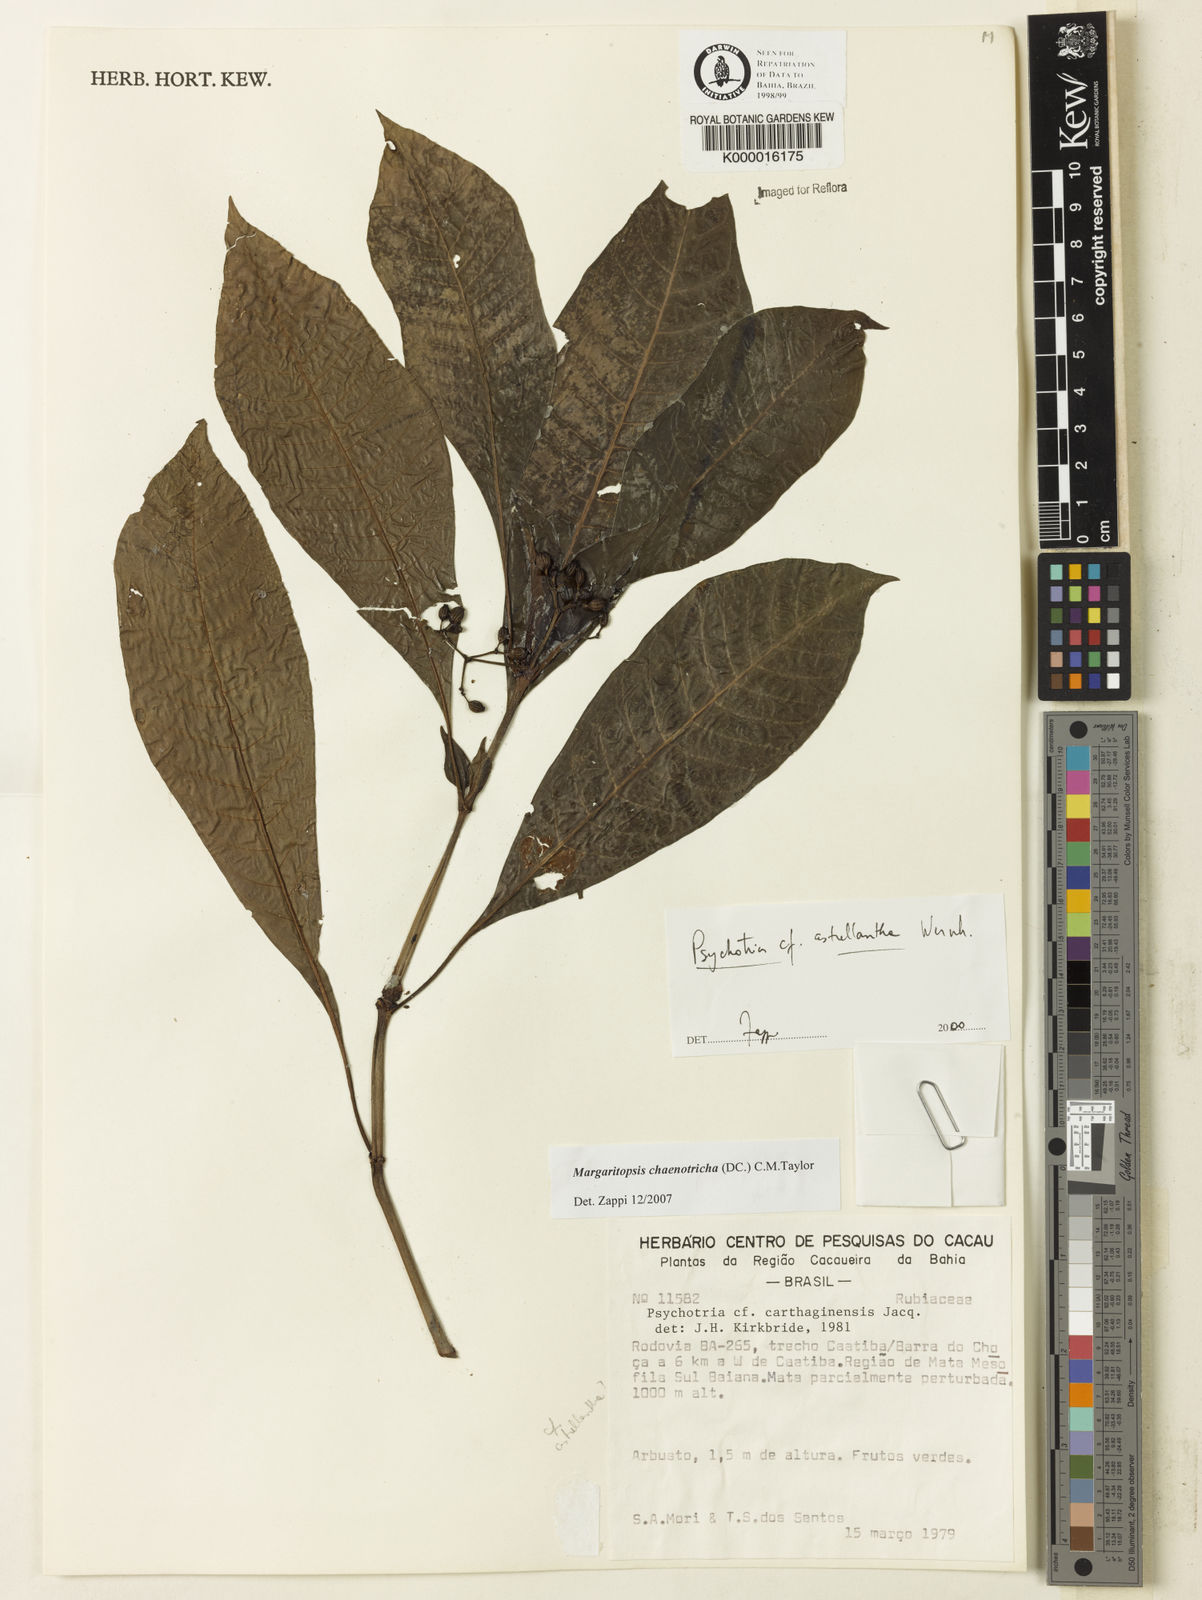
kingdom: Plantae
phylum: Tracheophyta
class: Magnoliopsida
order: Gentianales
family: Rubiaceae
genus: Eumachia
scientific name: Eumachia chaenotricha
